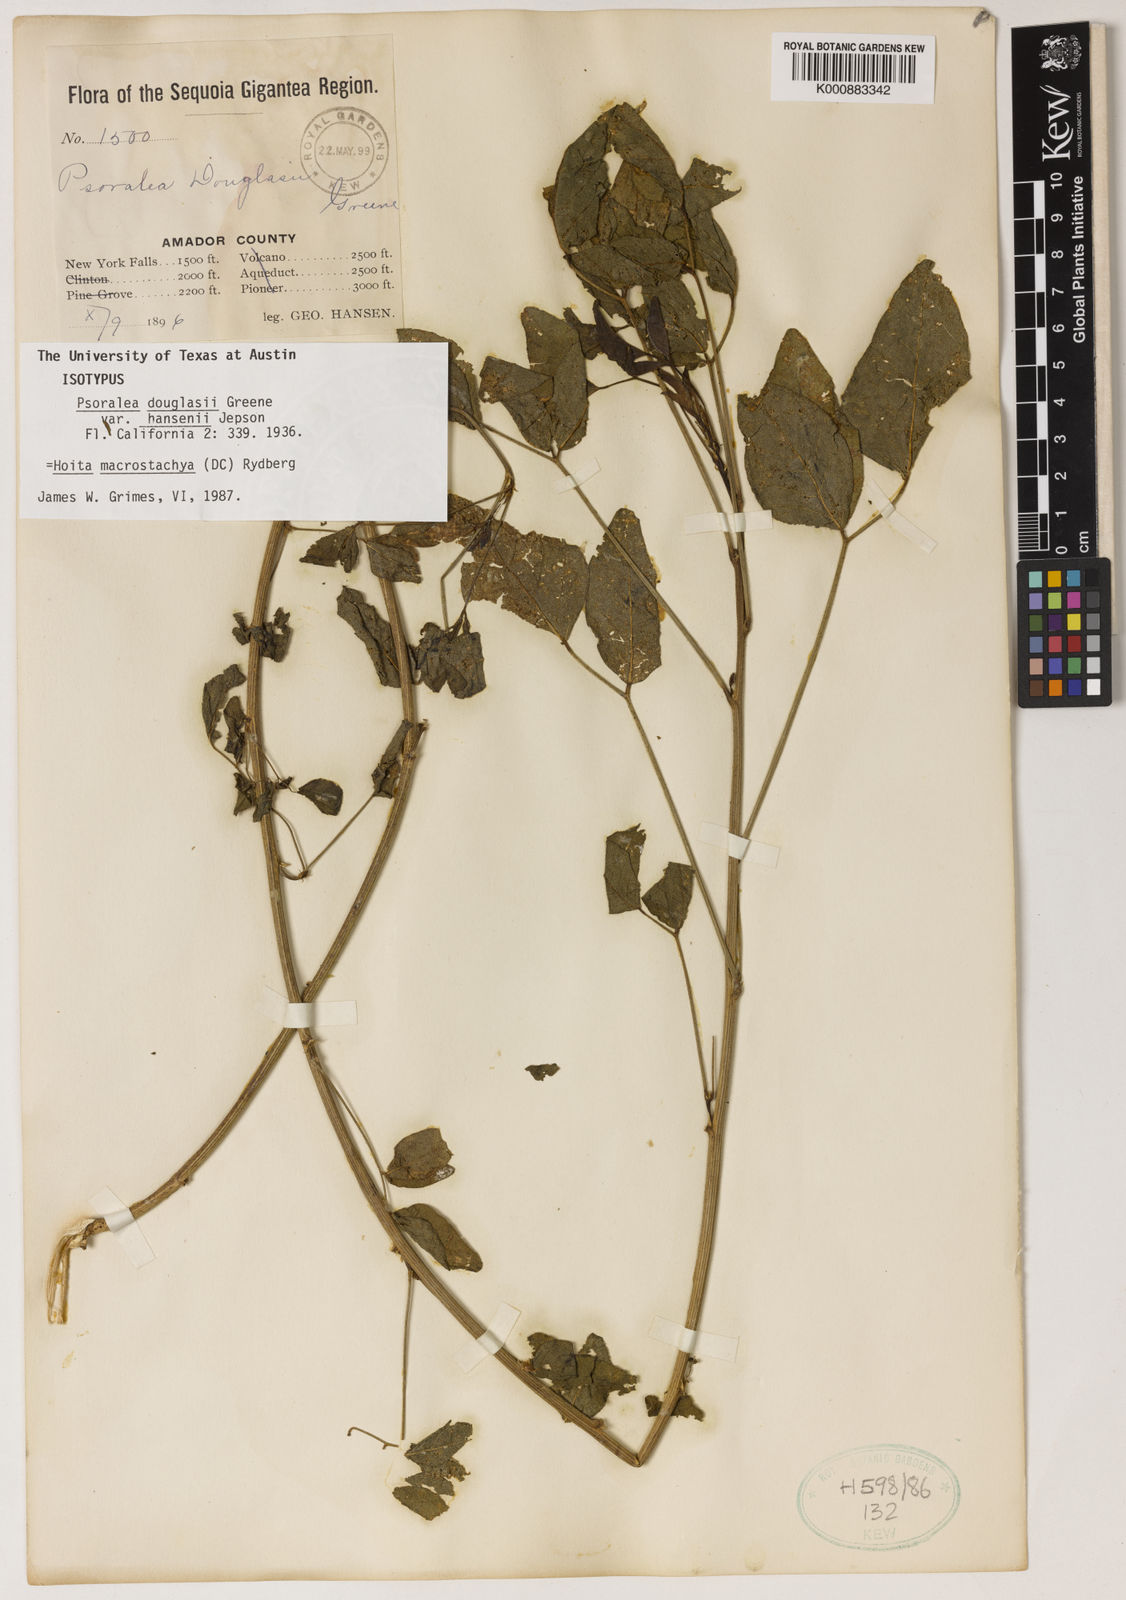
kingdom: Plantae
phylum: Tracheophyta
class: Magnoliopsida
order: Fabales
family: Fabaceae
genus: Hoita
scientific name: Hoita macrostachya
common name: Leatherroot
